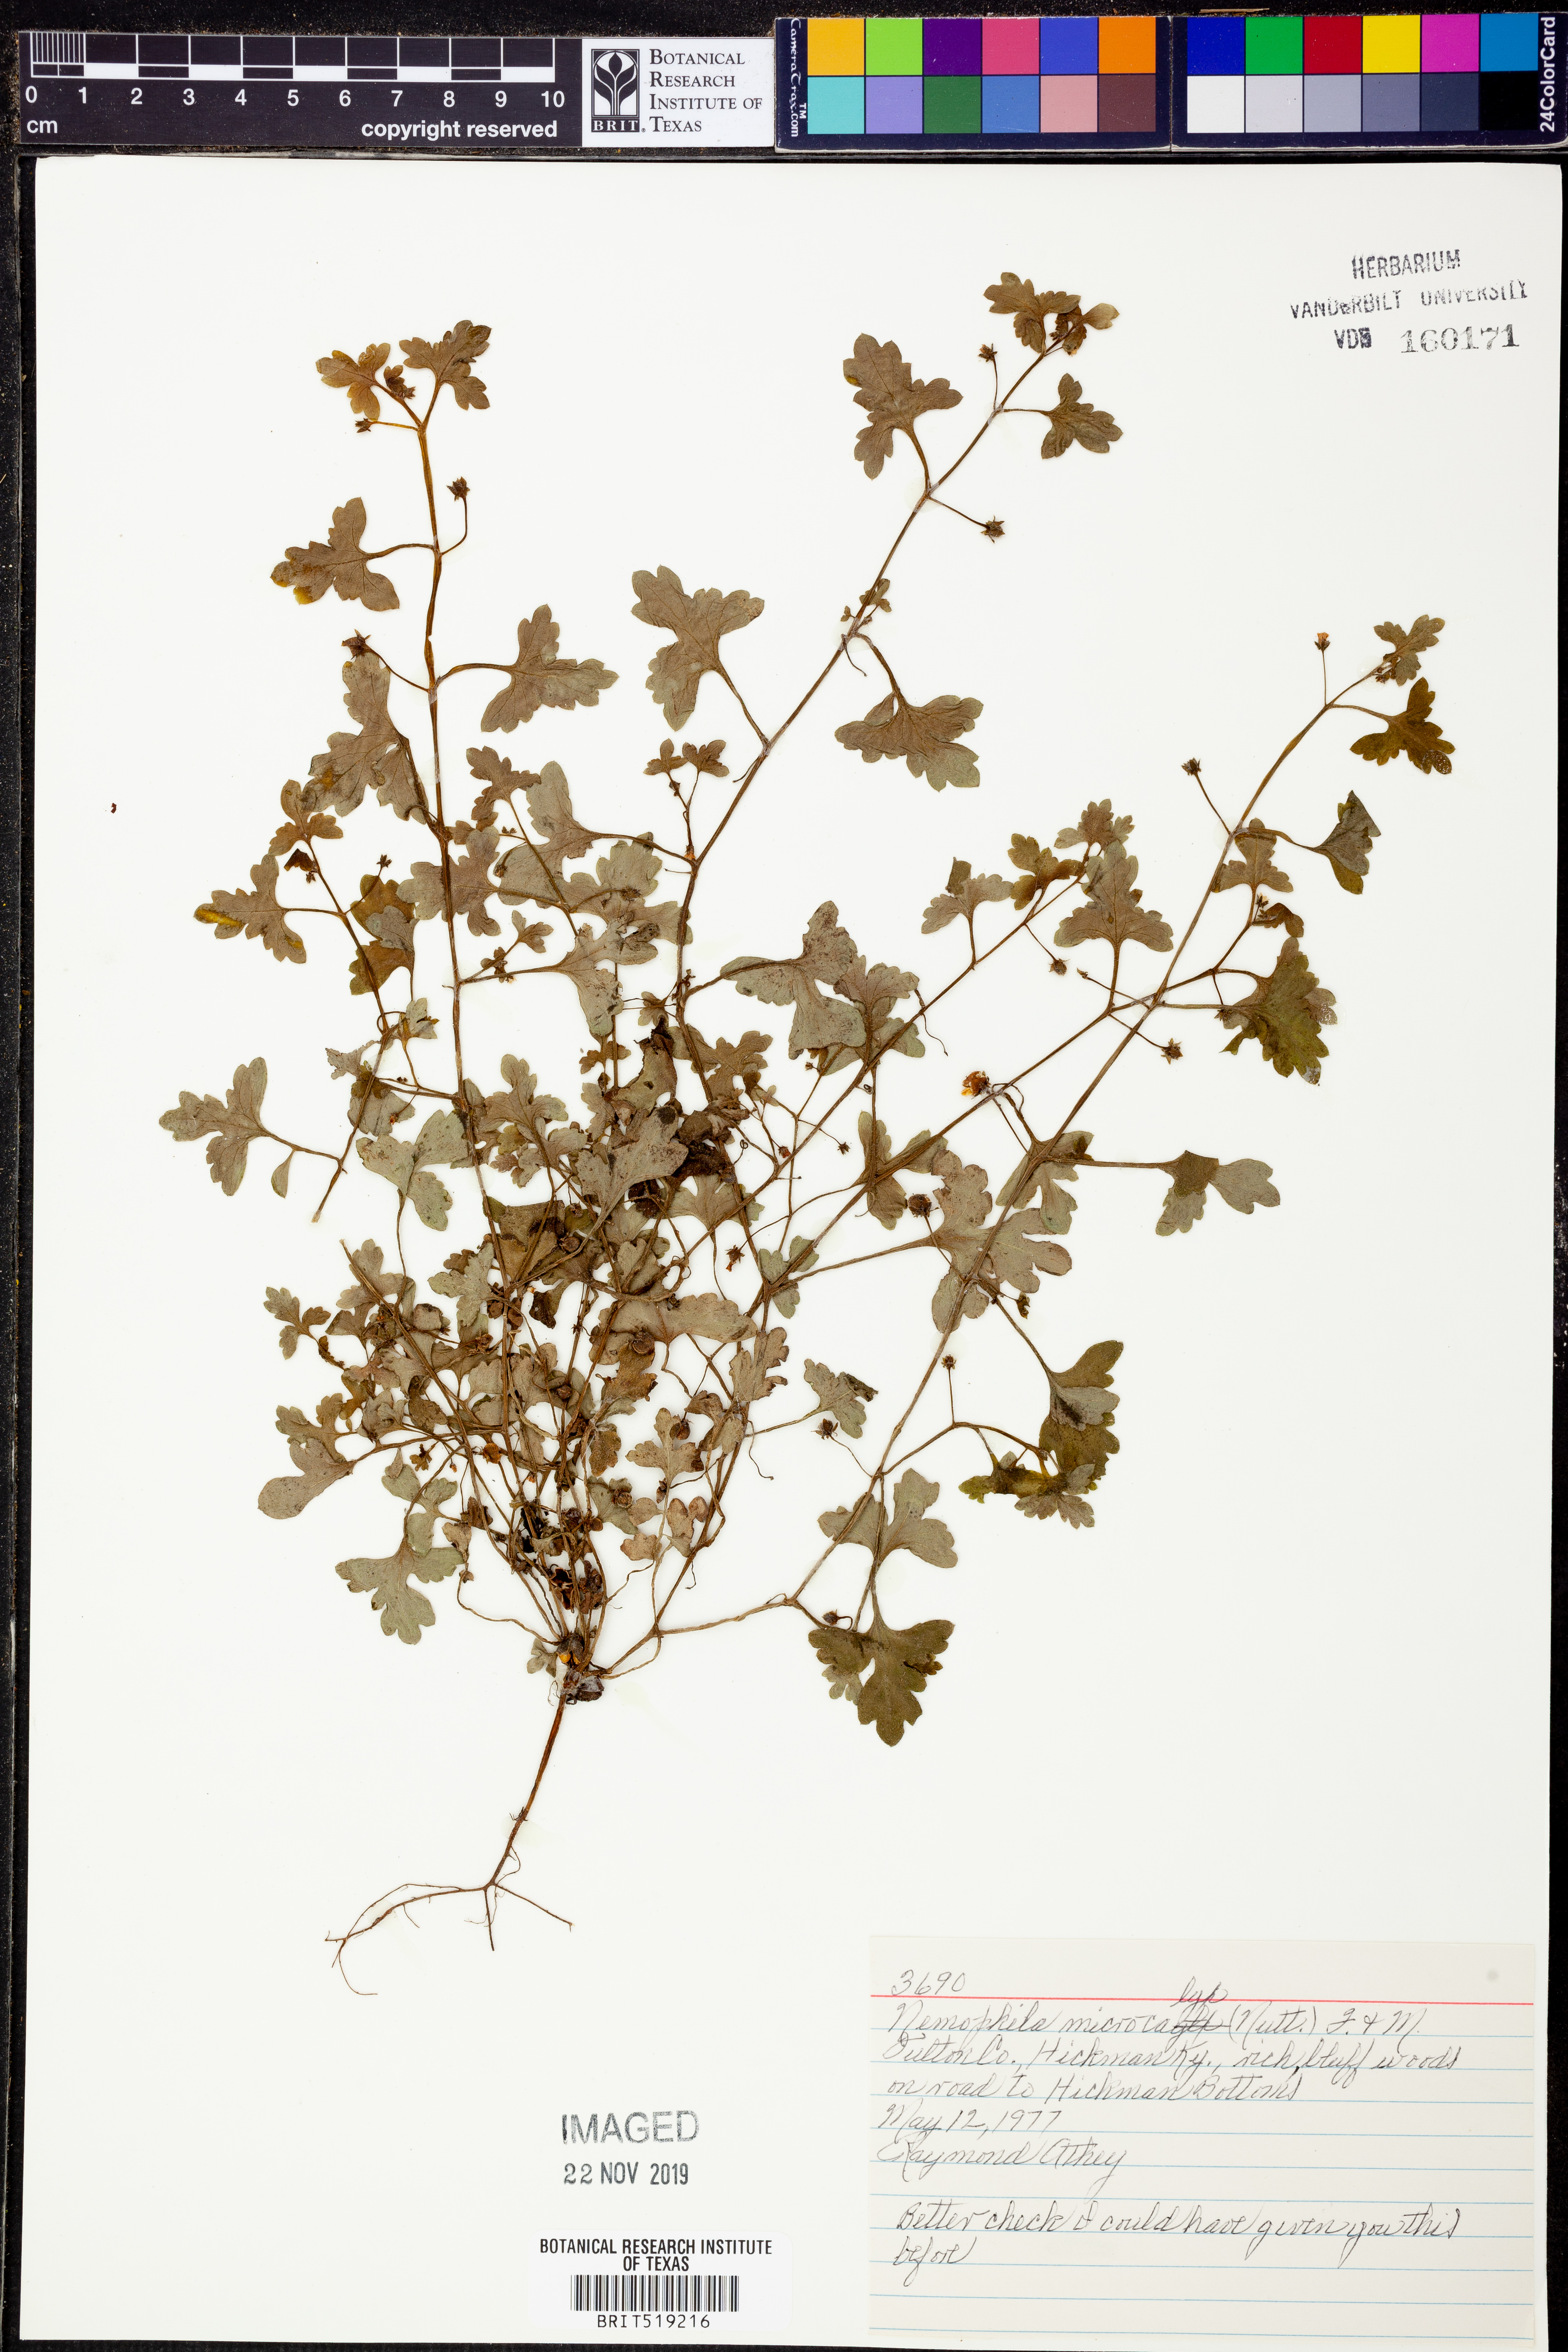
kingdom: Plantae
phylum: Tracheophyta
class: Magnoliopsida
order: Boraginales
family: Hydrophyllaceae
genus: Nemophila
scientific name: Nemophila aphylla
